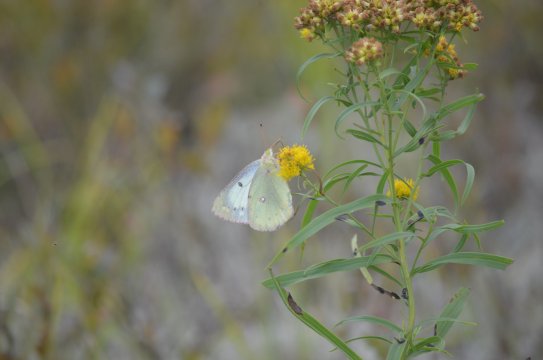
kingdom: Animalia
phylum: Arthropoda
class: Insecta
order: Lepidoptera
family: Pieridae
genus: Colias
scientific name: Colias philodice
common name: Clouded Sulphur
